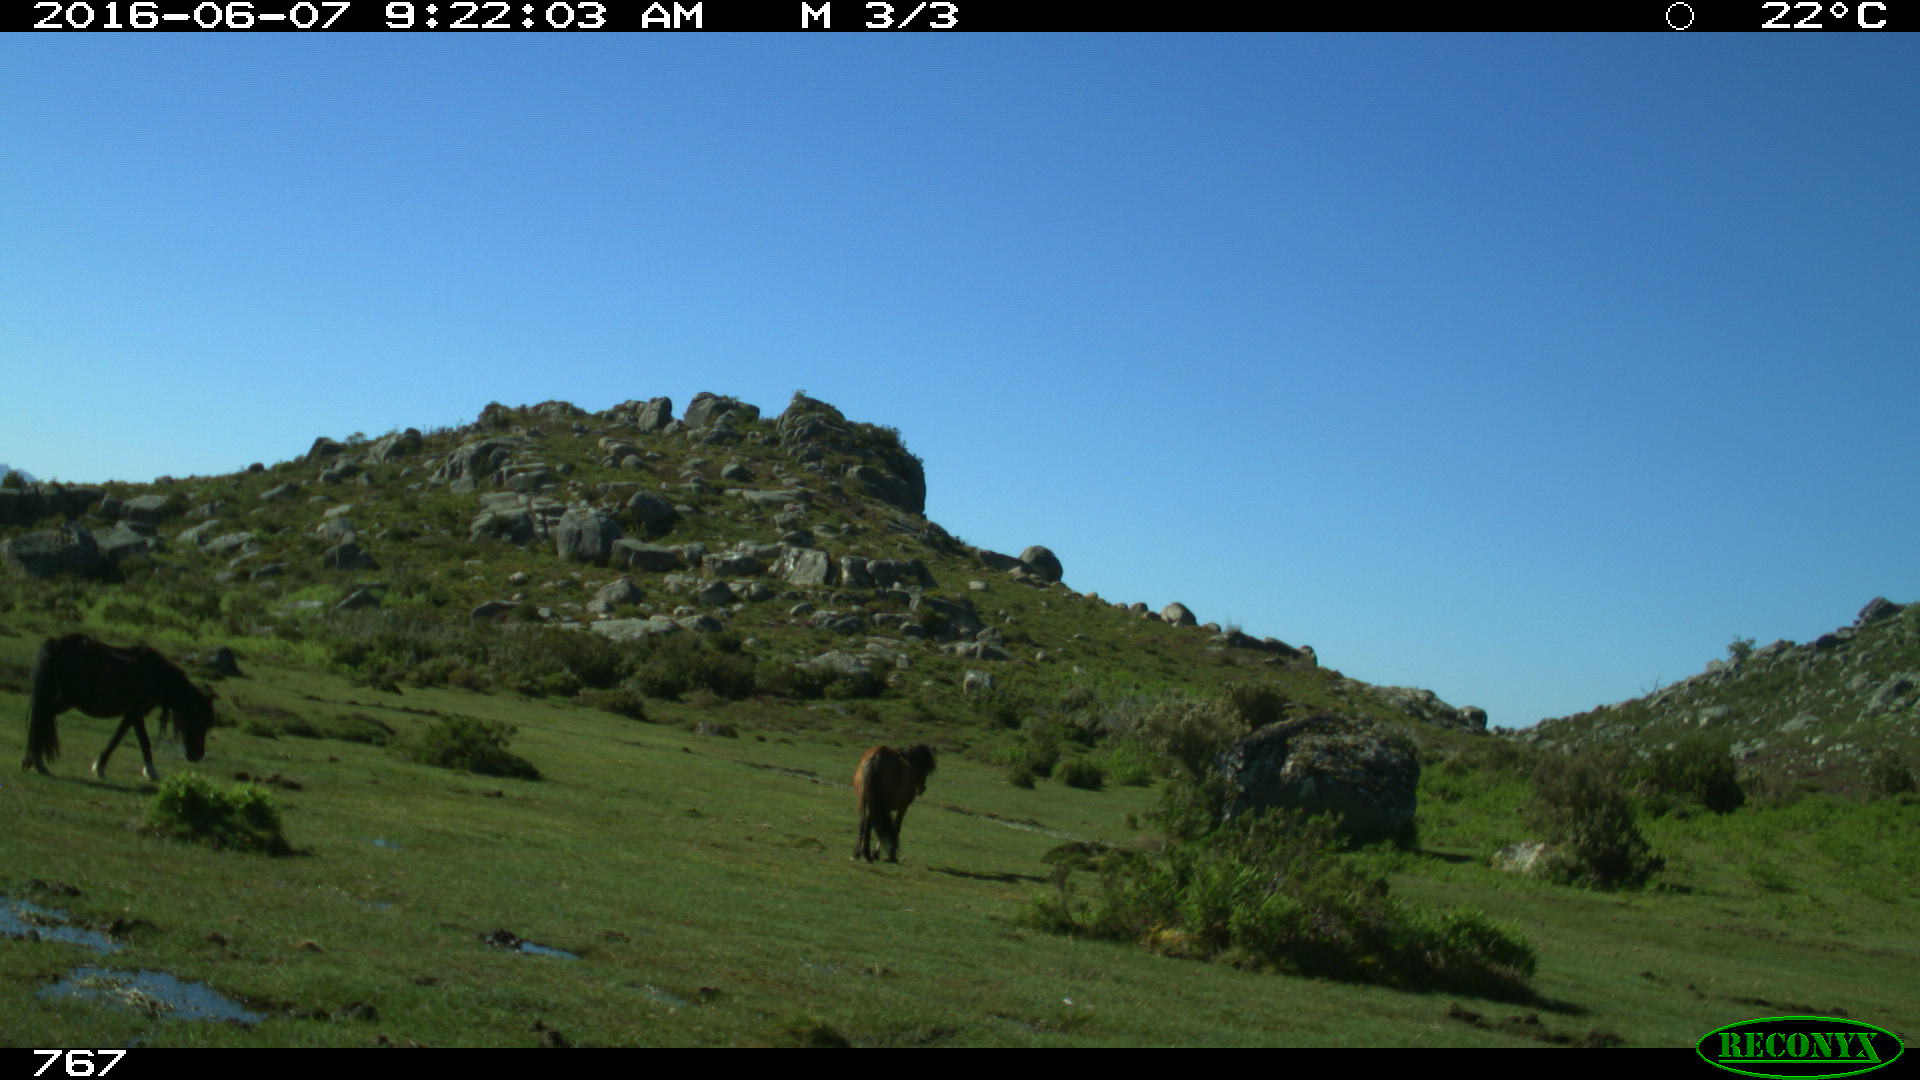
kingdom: Animalia
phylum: Chordata
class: Mammalia
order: Perissodactyla
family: Equidae
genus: Equus
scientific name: Equus caballus
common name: Horse
